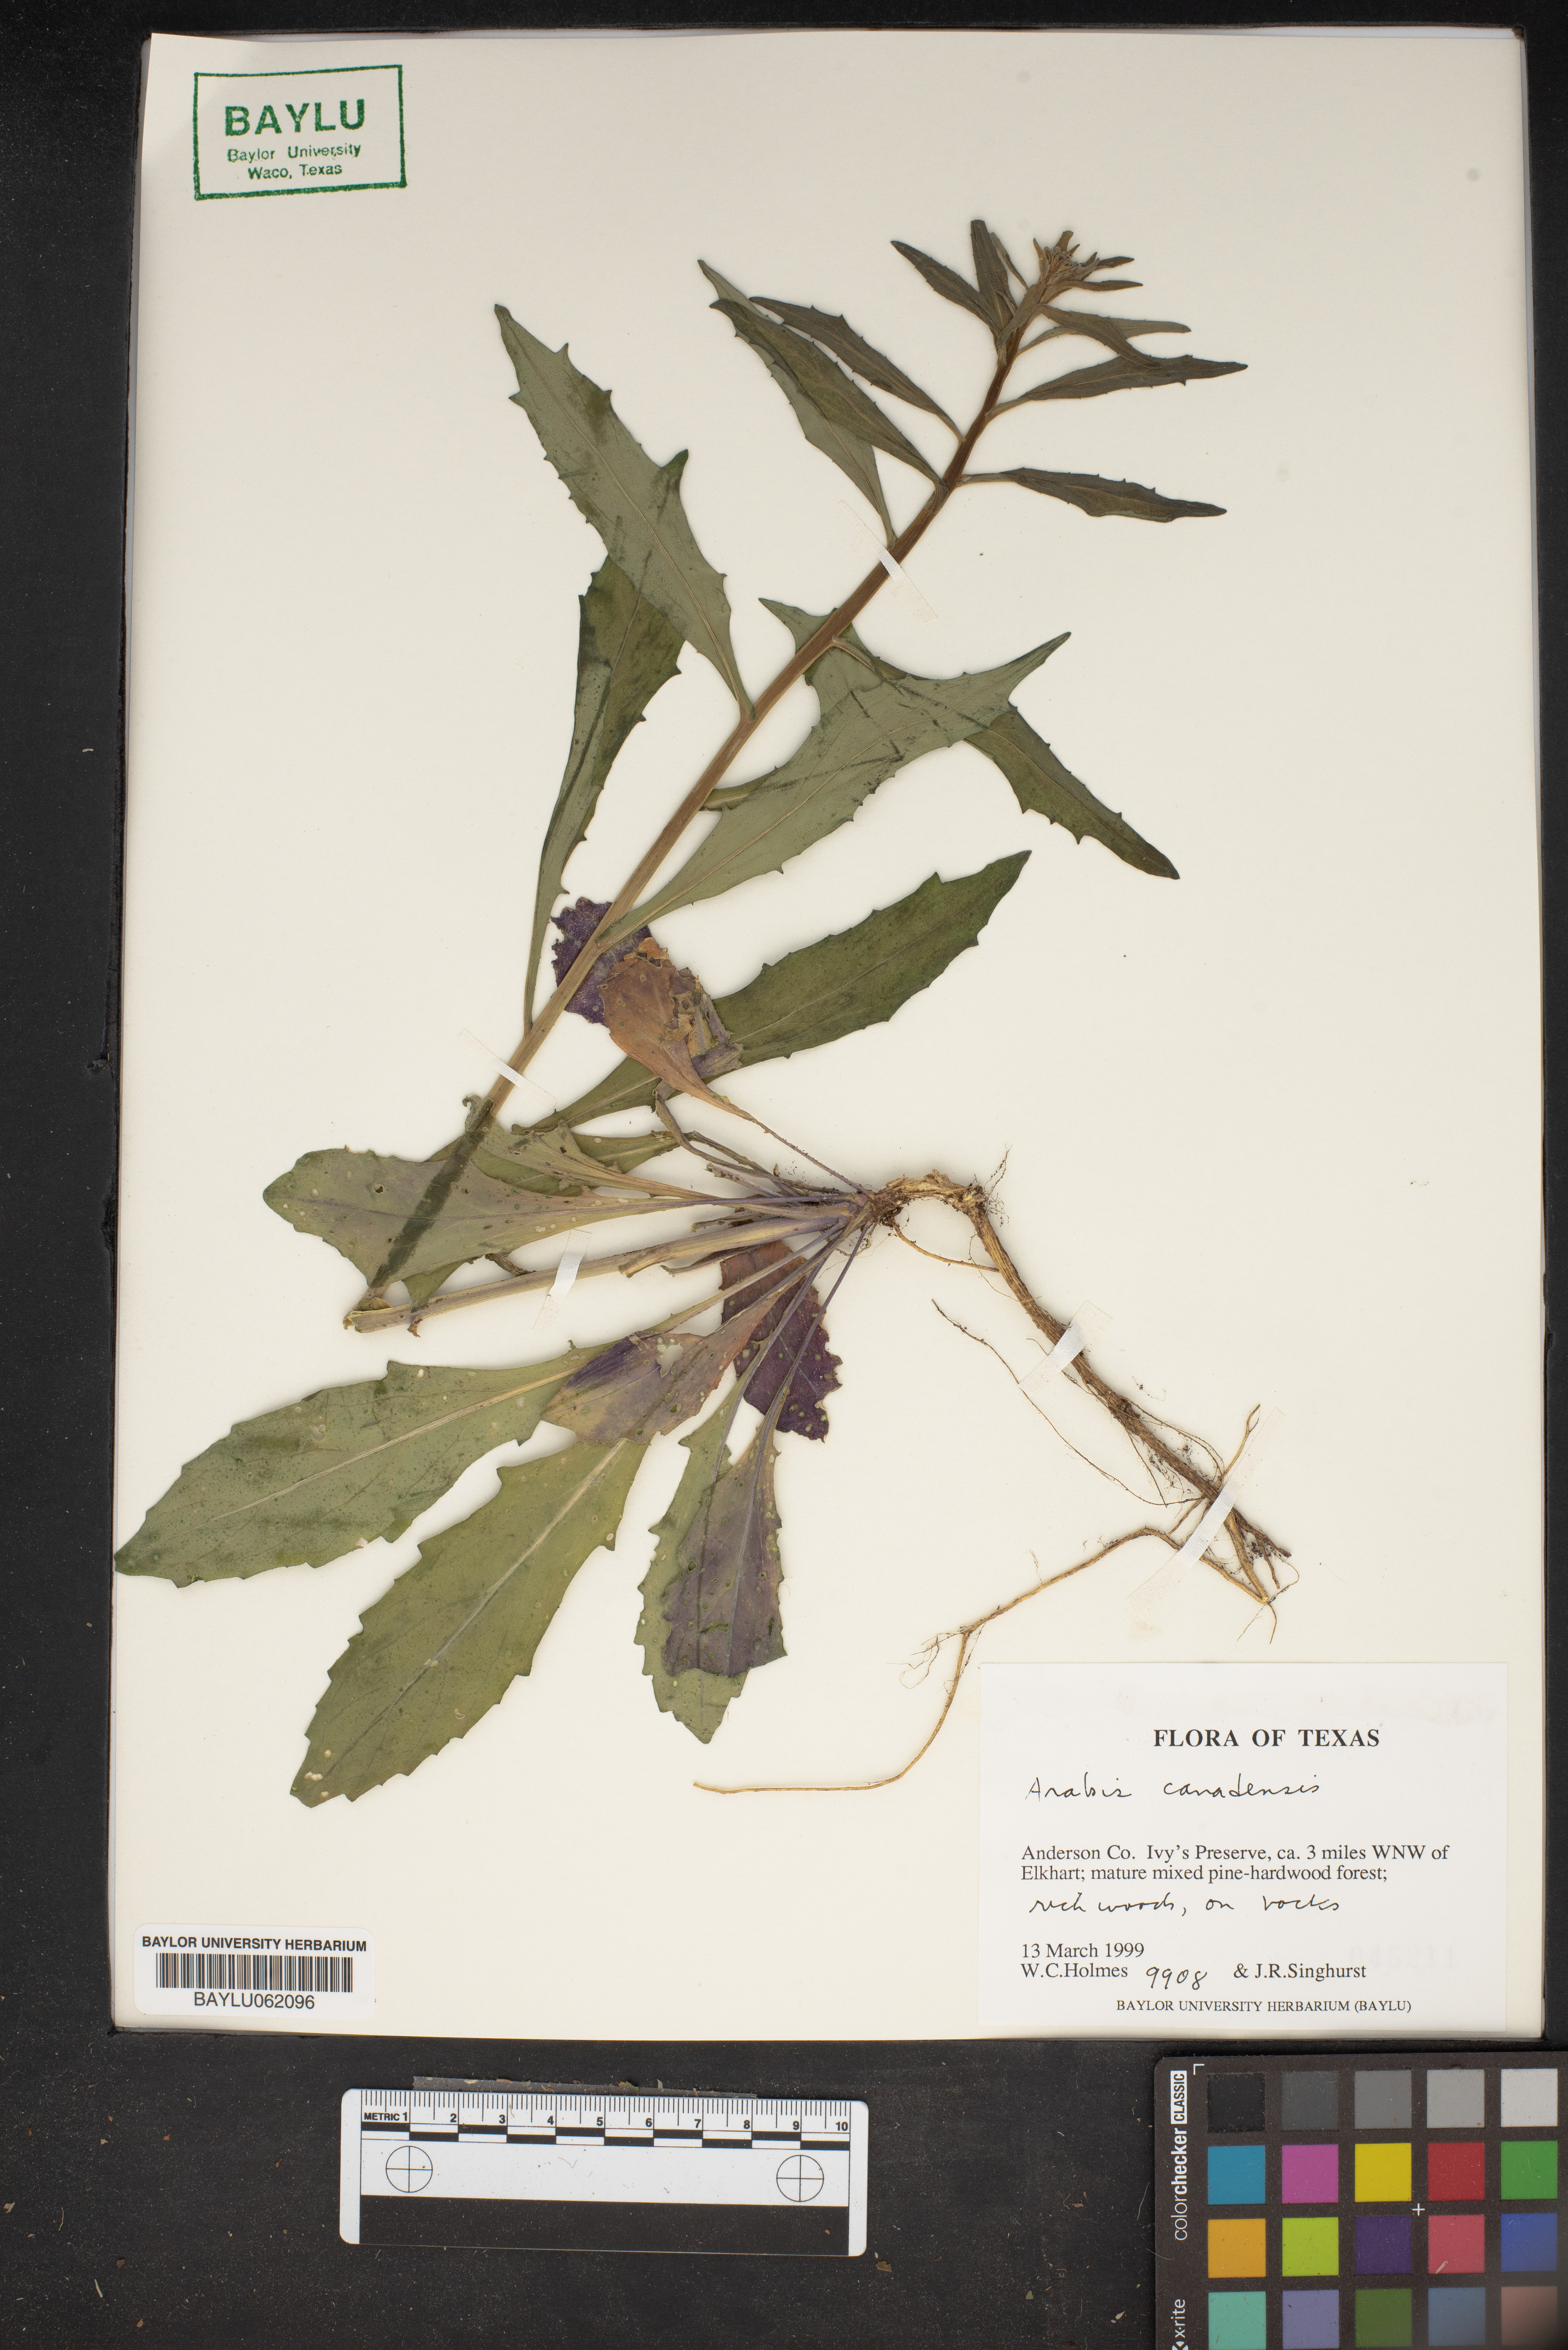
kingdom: Plantae
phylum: Tracheophyta
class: Magnoliopsida
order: Brassicales
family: Brassicaceae
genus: Borodinia
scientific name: Borodinia canadensis
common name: Sicklepod
